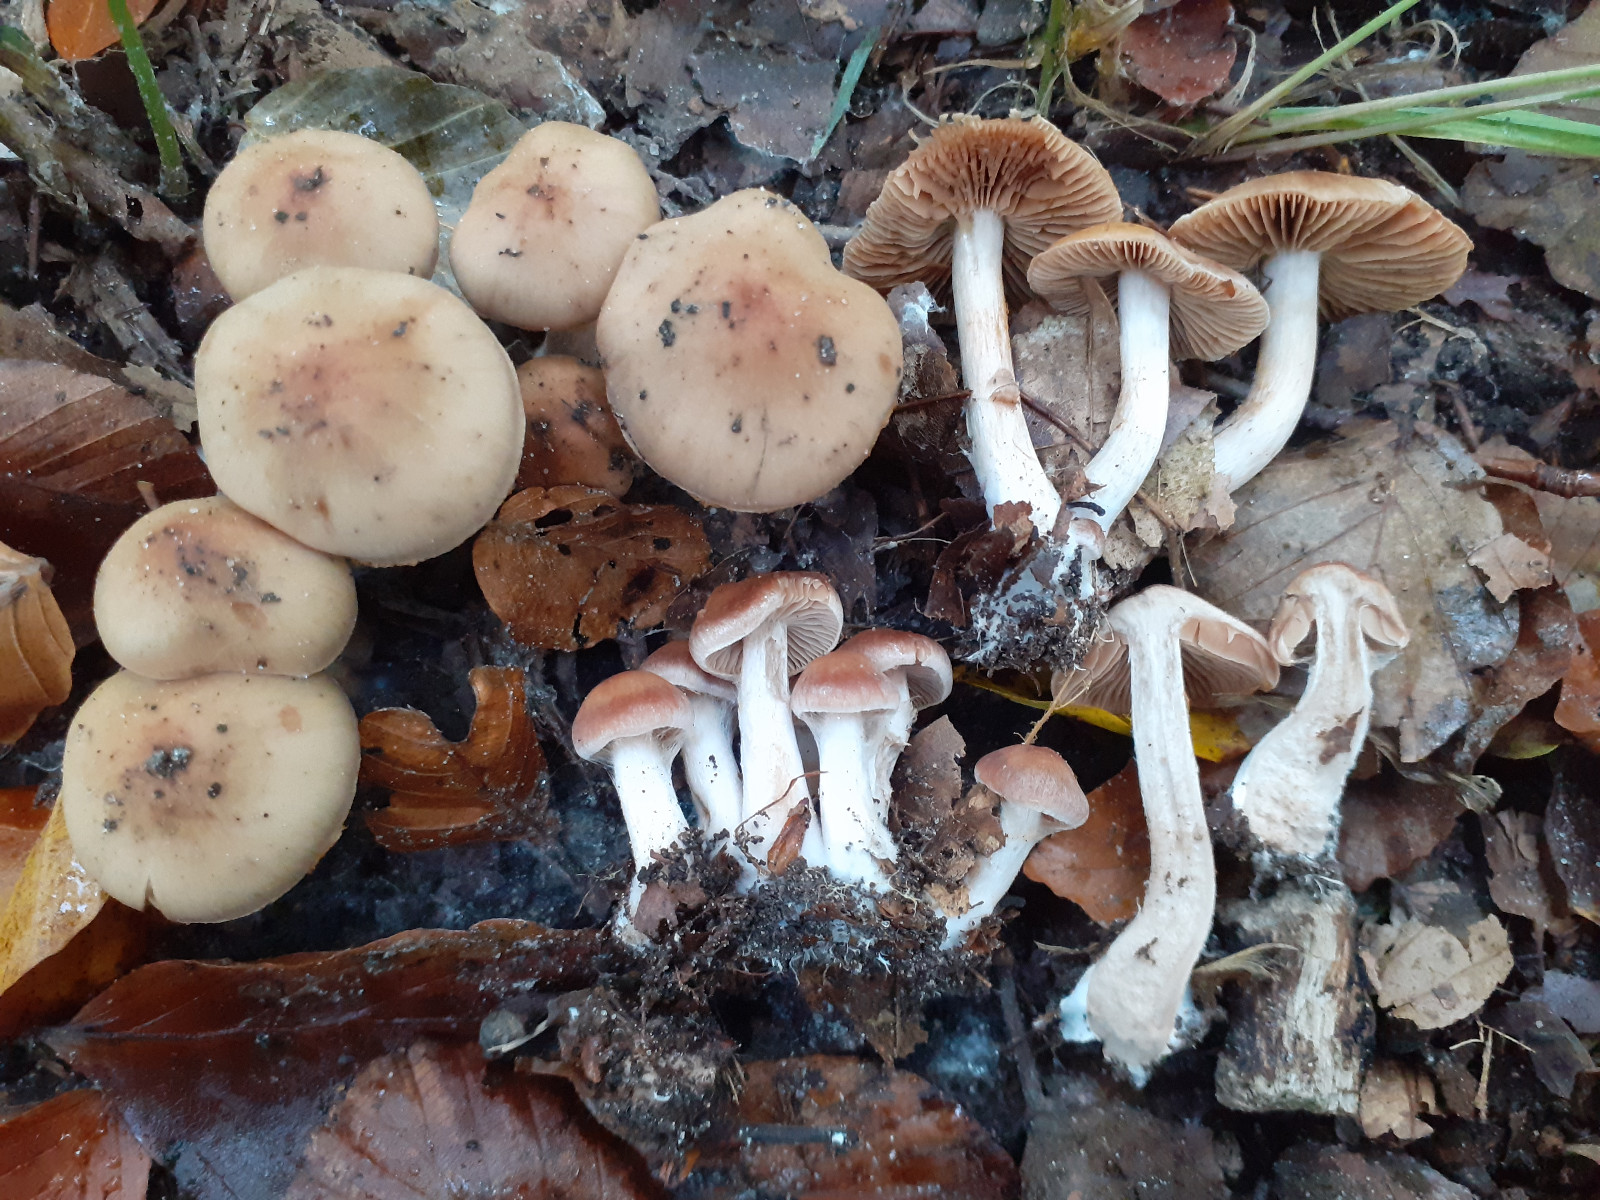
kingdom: Fungi
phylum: Basidiomycota
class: Agaricomycetes
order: Agaricales
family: Cortinariaceae
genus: Cortinarius
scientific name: Cortinarius leiocastaneus
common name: rosabrun slørhat
